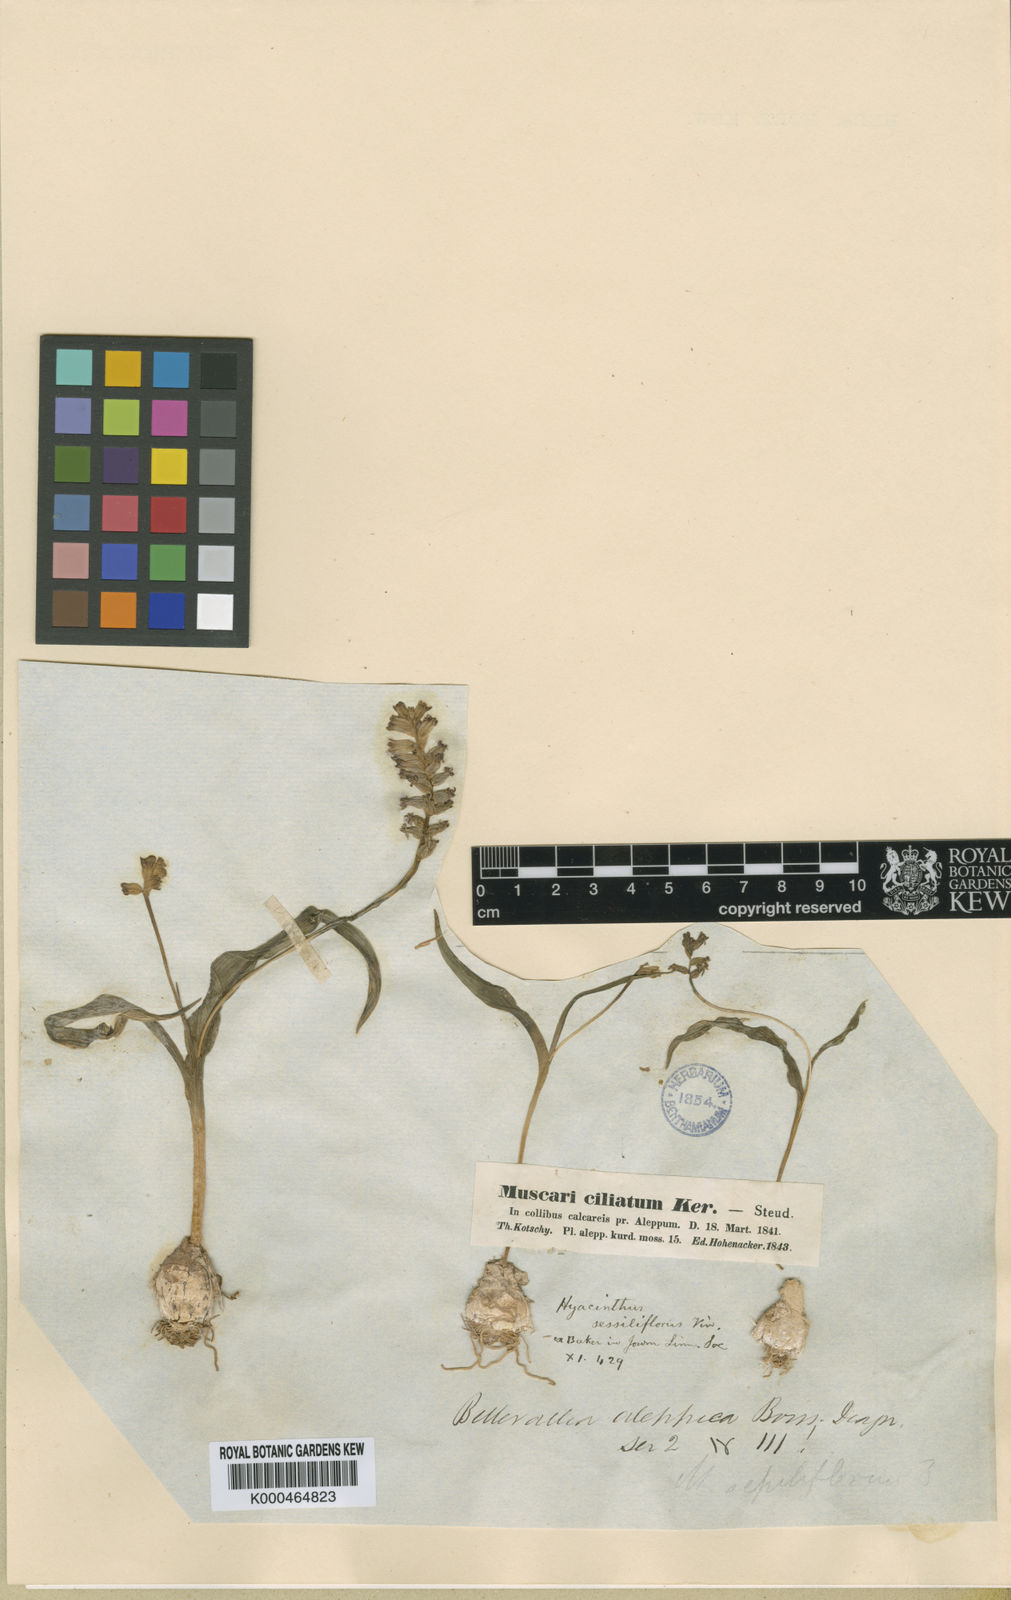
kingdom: Plantae
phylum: Tracheophyta
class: Liliopsida
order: Asparagales
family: Asparagaceae
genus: Hyacinthella
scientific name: Hyacinthella nervosa
